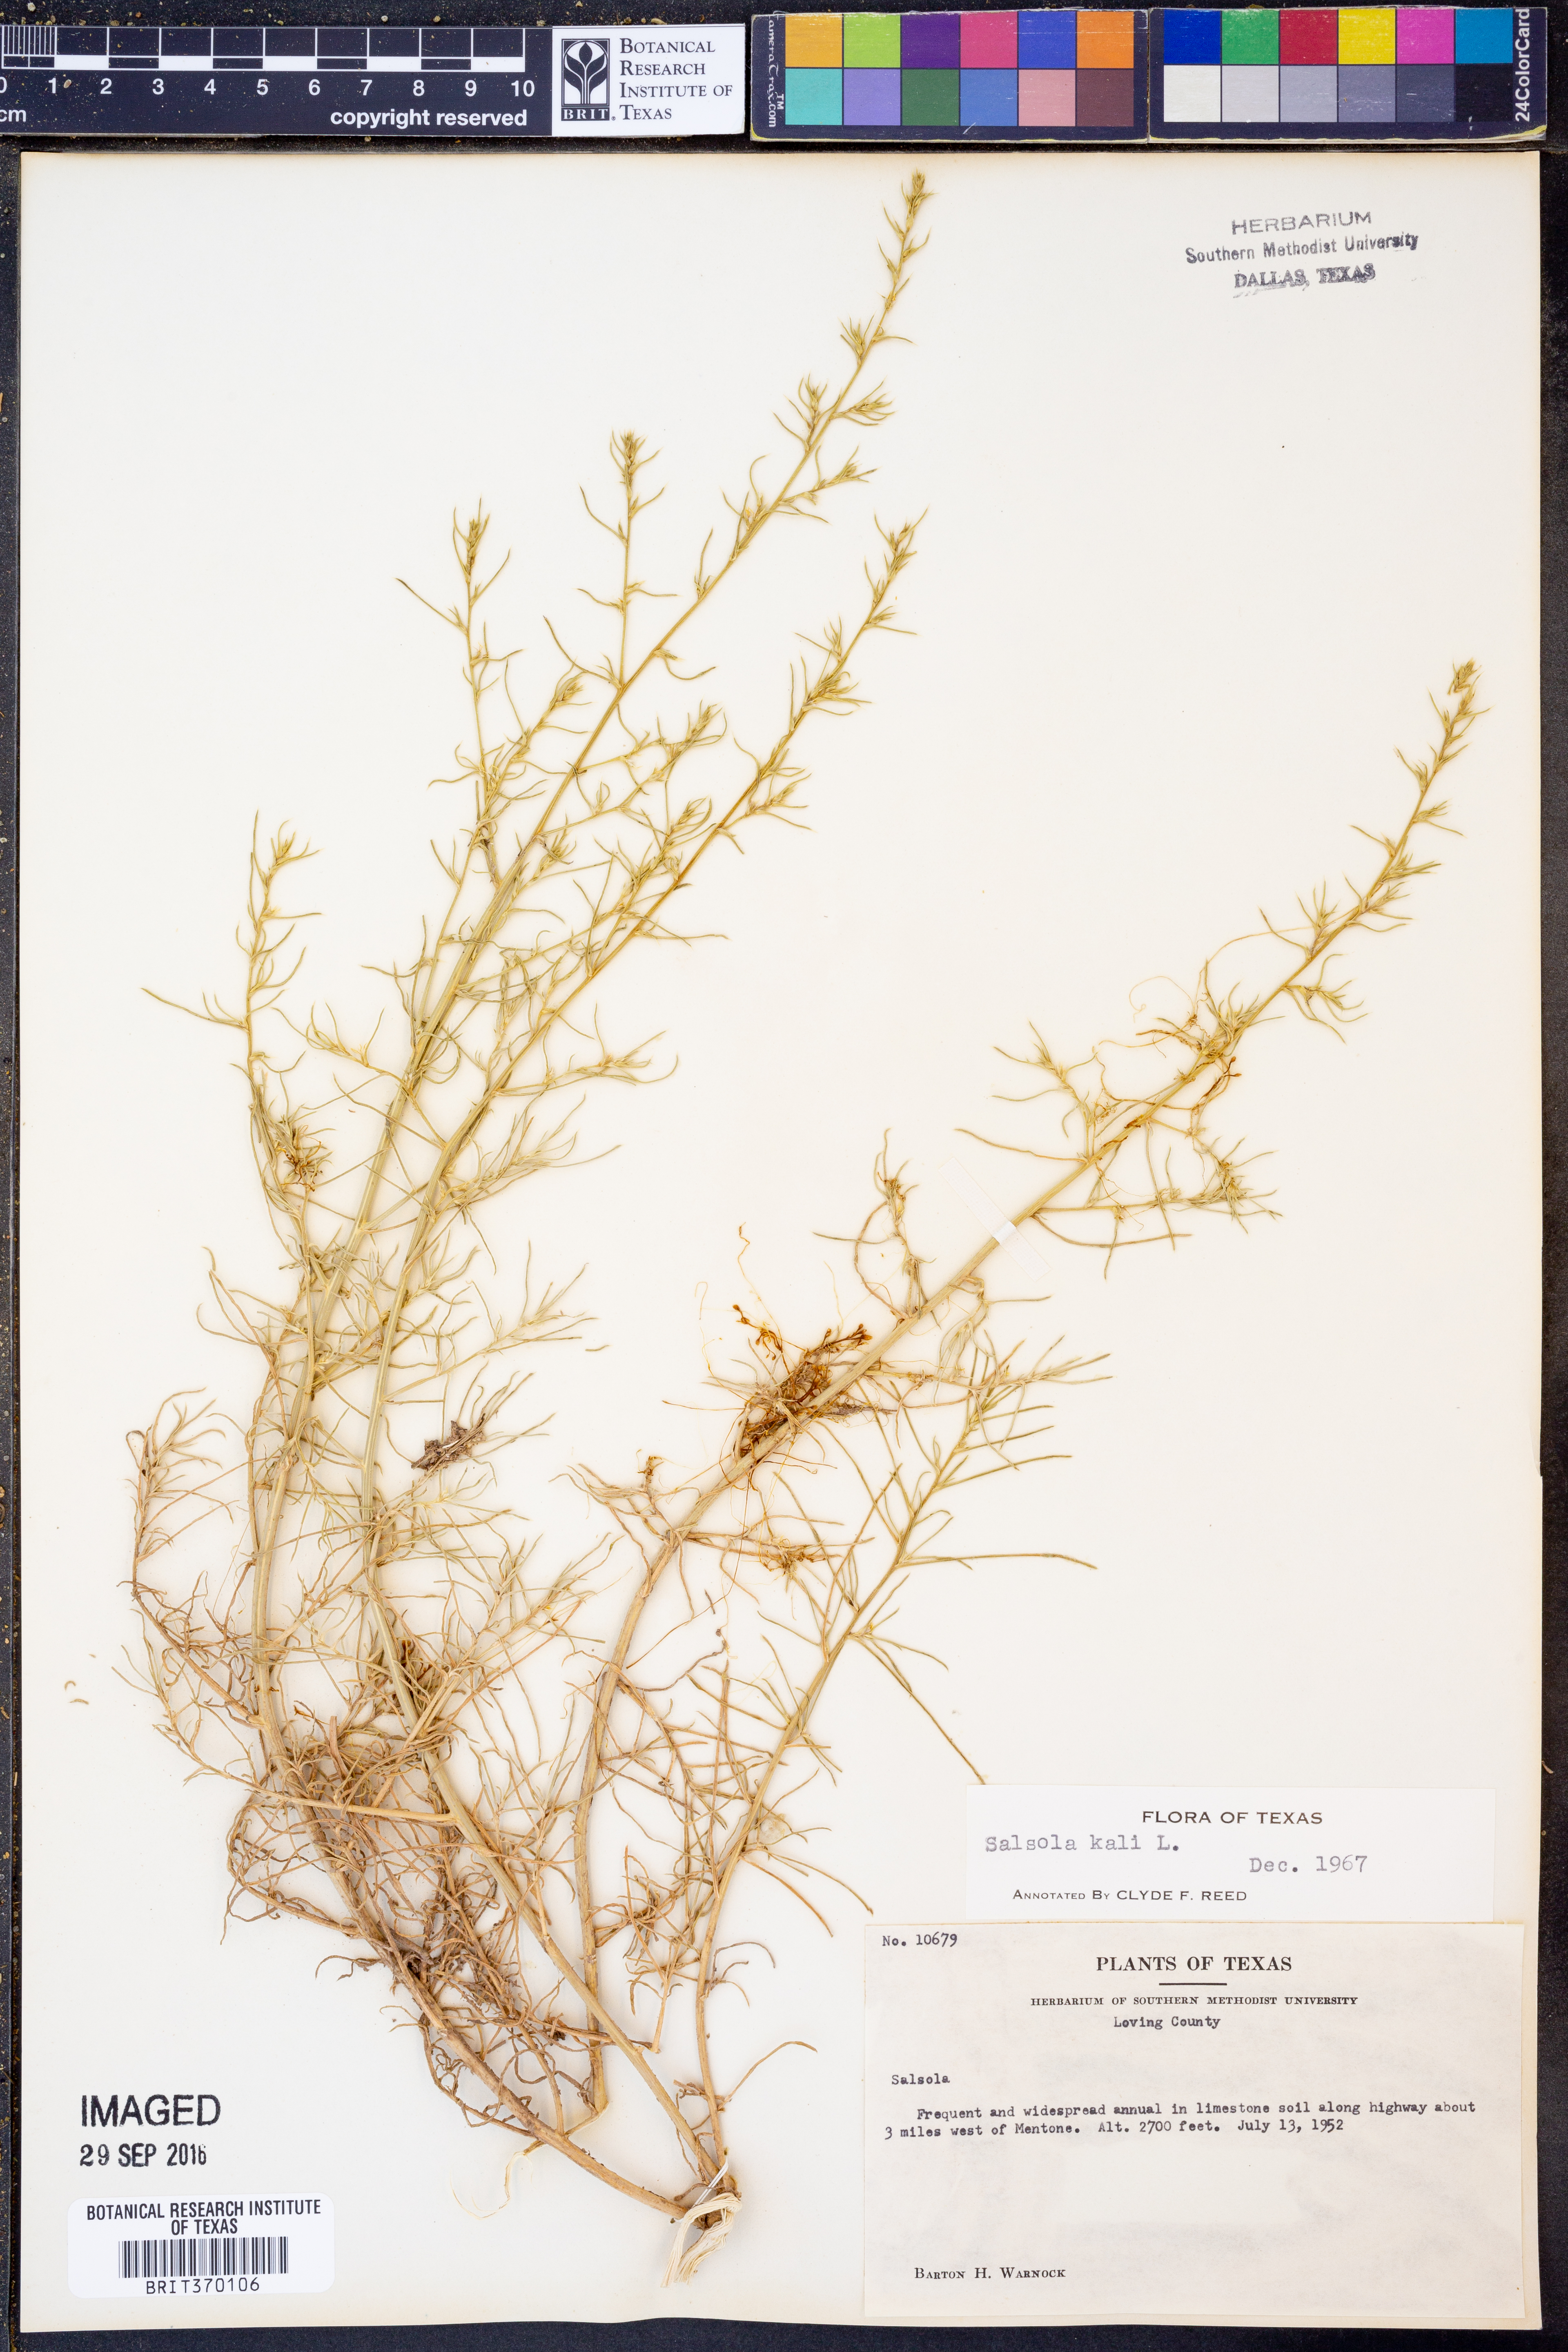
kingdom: Plantae
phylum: Tracheophyta
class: Magnoliopsida
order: Caryophyllales
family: Amaranthaceae
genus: Salsola
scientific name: Salsola tragus
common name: Prickly russian thistle
